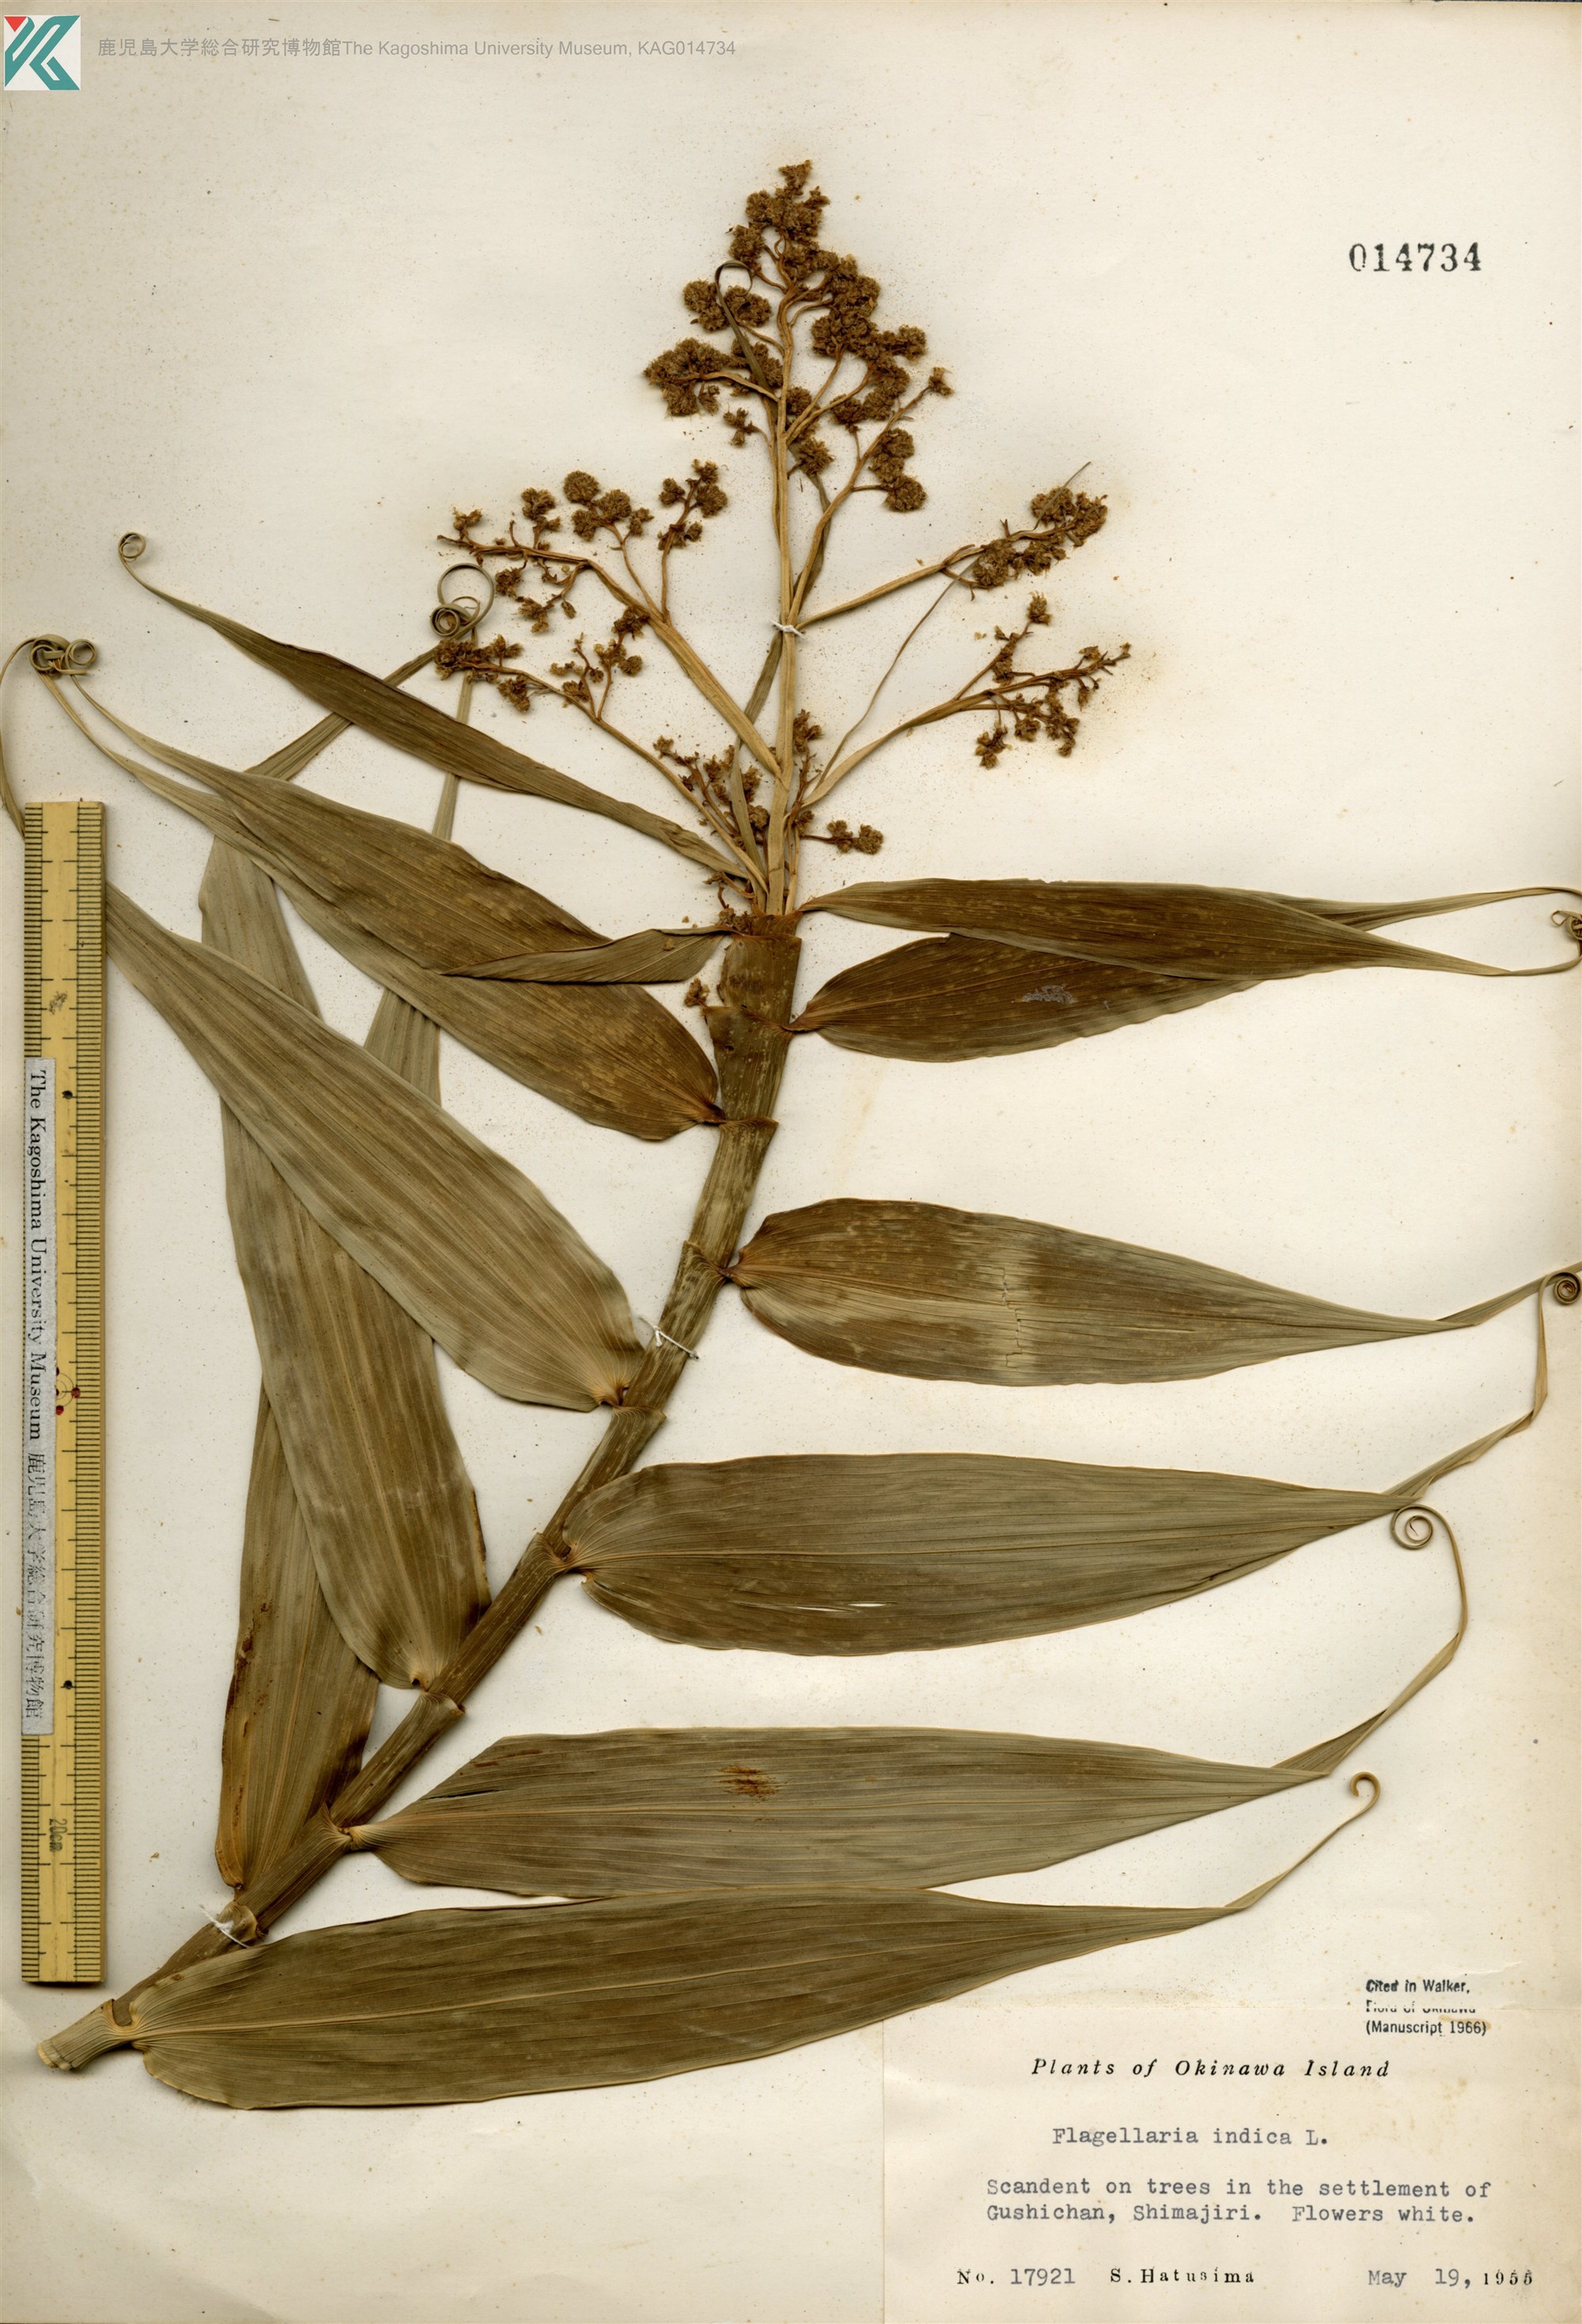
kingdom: Plantae
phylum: Tracheophyta
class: Liliopsida
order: Poales
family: Flagellariaceae
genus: Flagellaria
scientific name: Flagellaria indica
